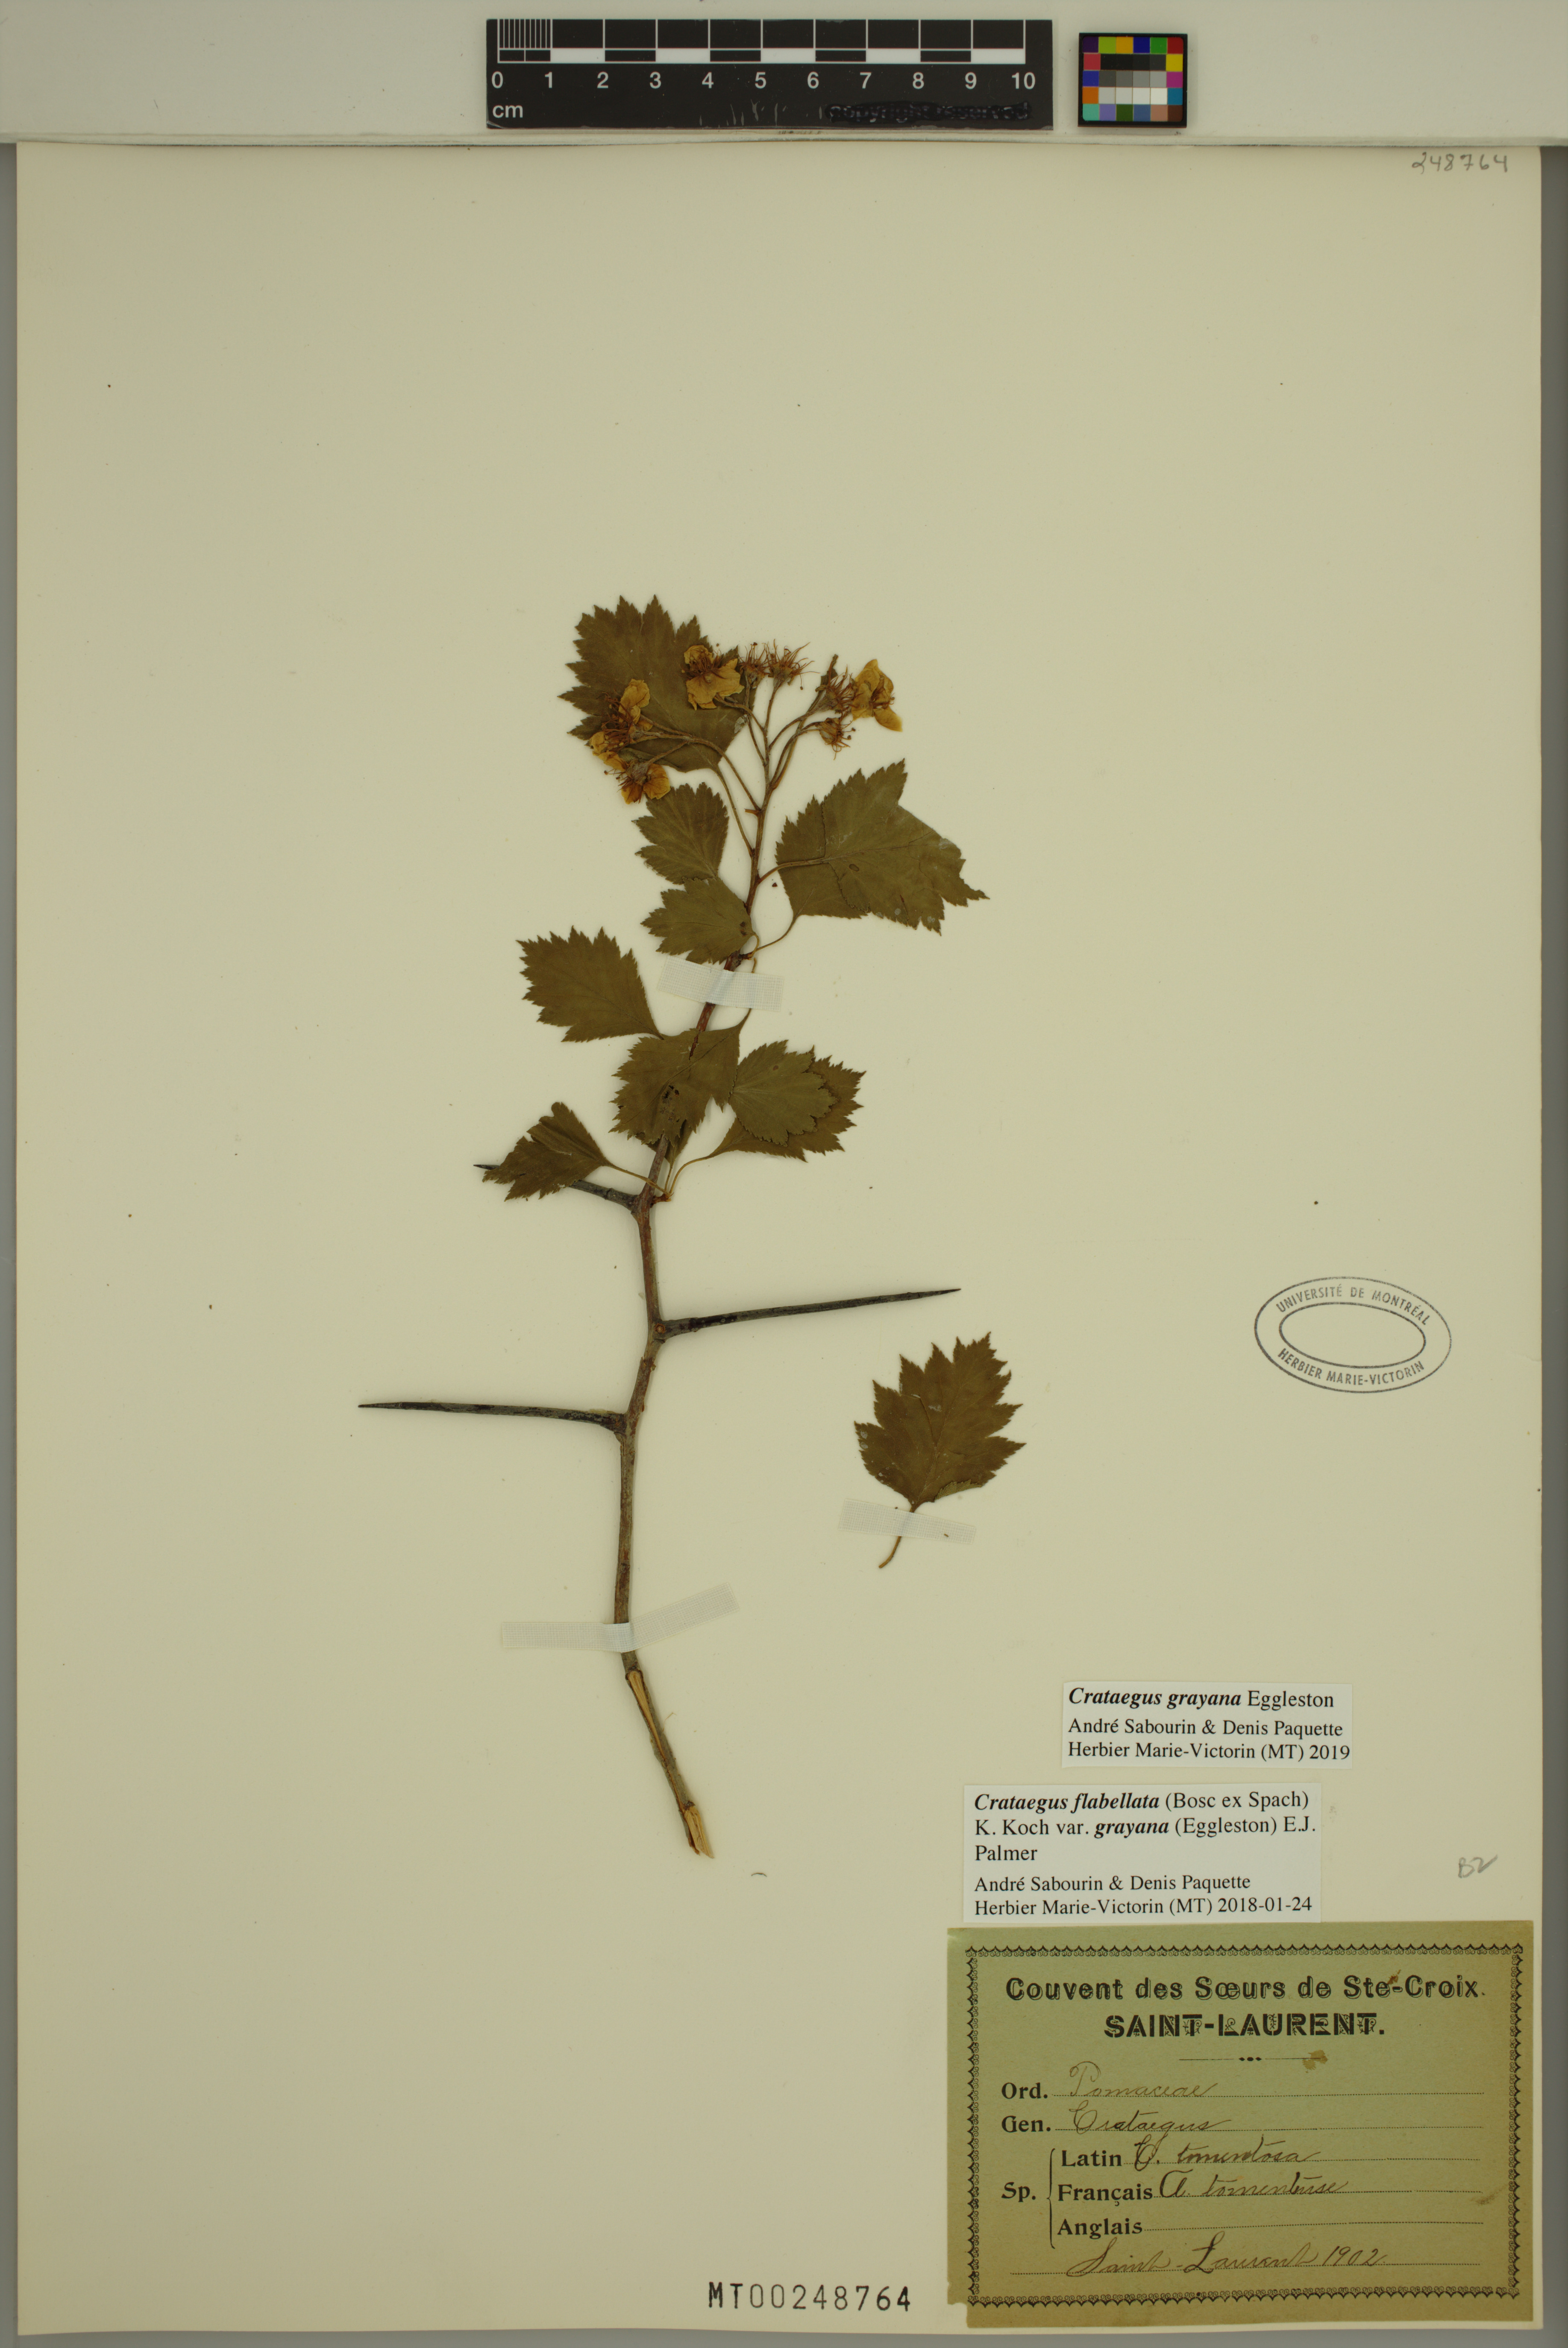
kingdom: Plantae
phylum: Tracheophyta
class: Magnoliopsida
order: Rosales
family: Rosaceae
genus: Crataegus
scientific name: Crataegus schuettei
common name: Schuette's hawthorn
